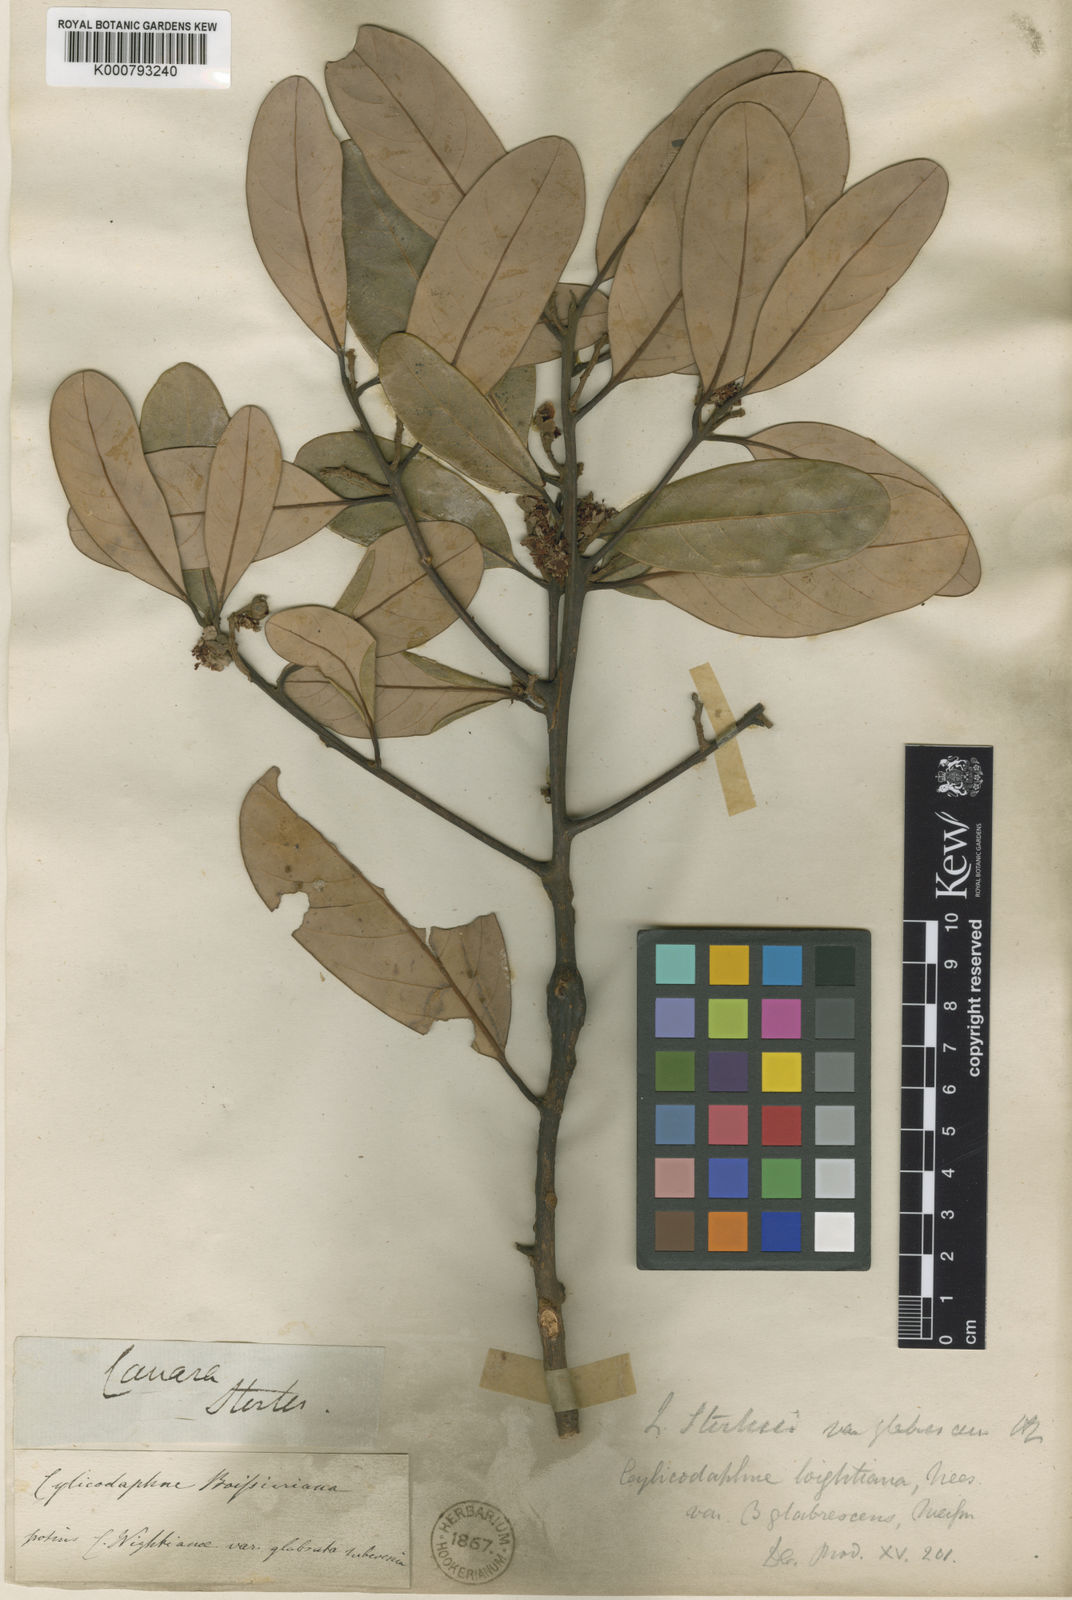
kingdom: Plantae
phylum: Tracheophyta
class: Magnoliopsida
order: Laurales
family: Lauraceae
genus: Litsea
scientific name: Litsea stocksii
